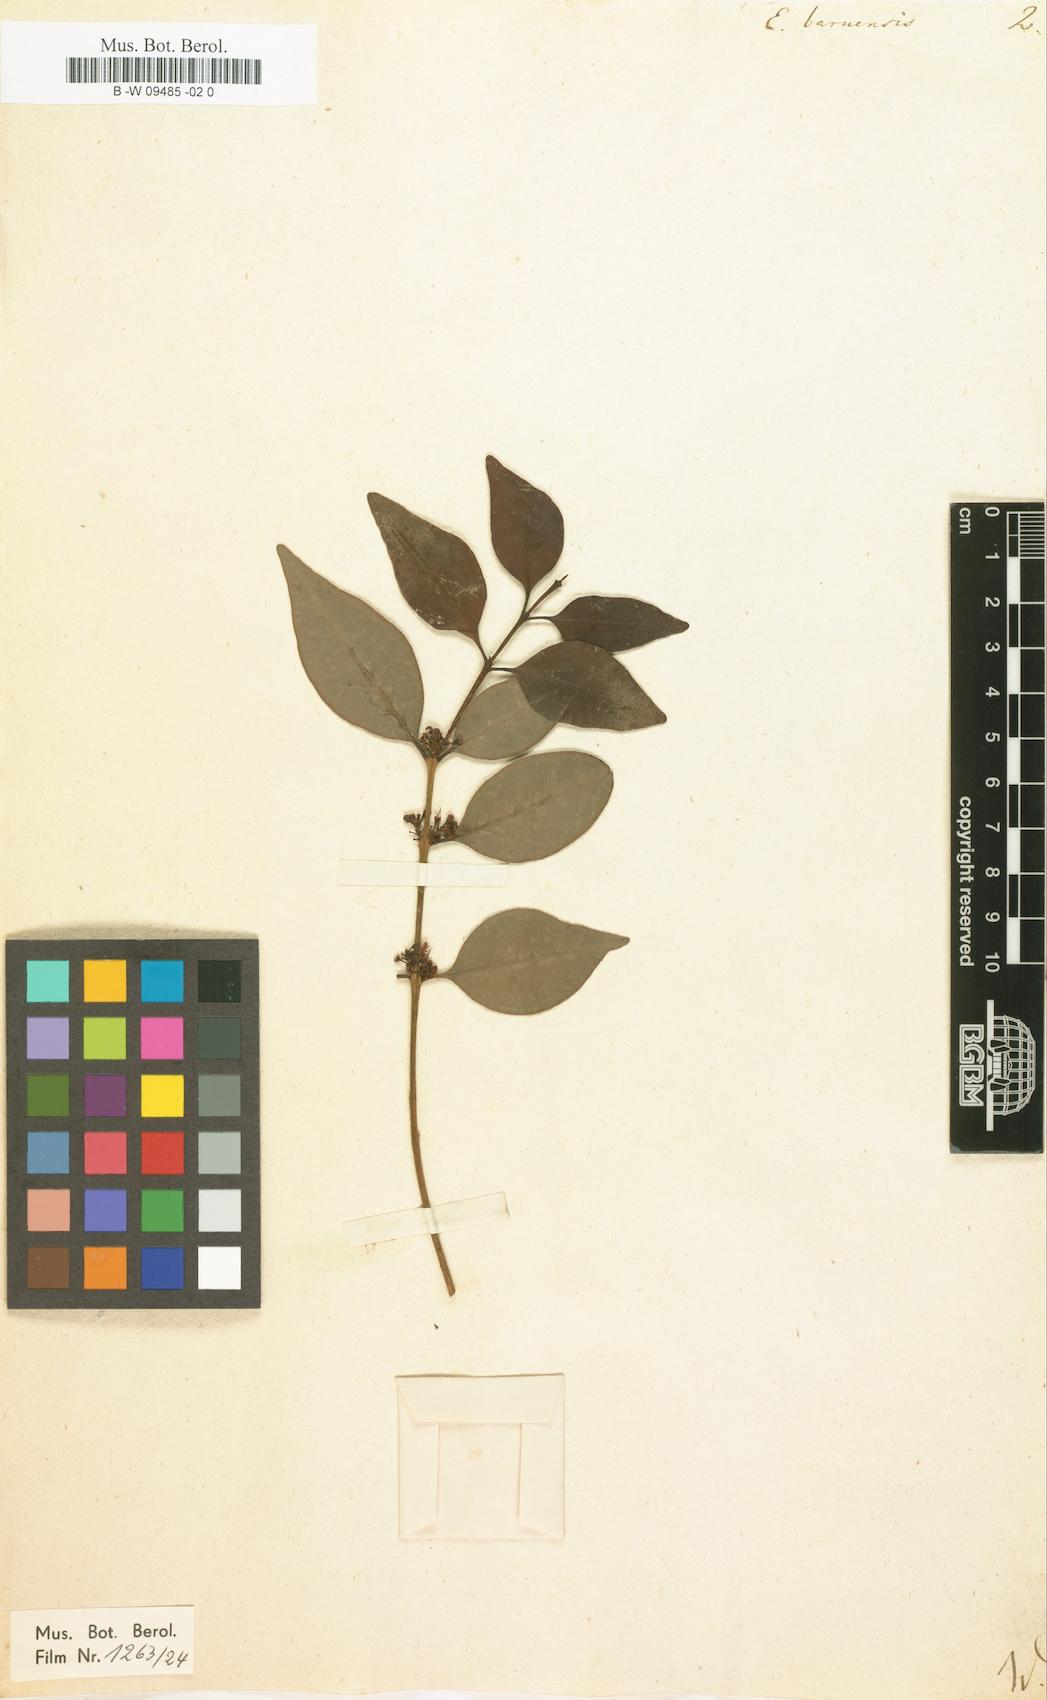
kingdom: Plantae
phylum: Tracheophyta
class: Magnoliopsida
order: Myrtales
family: Myrtaceae
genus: Eugenia
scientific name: Eugenia acapulcensis
